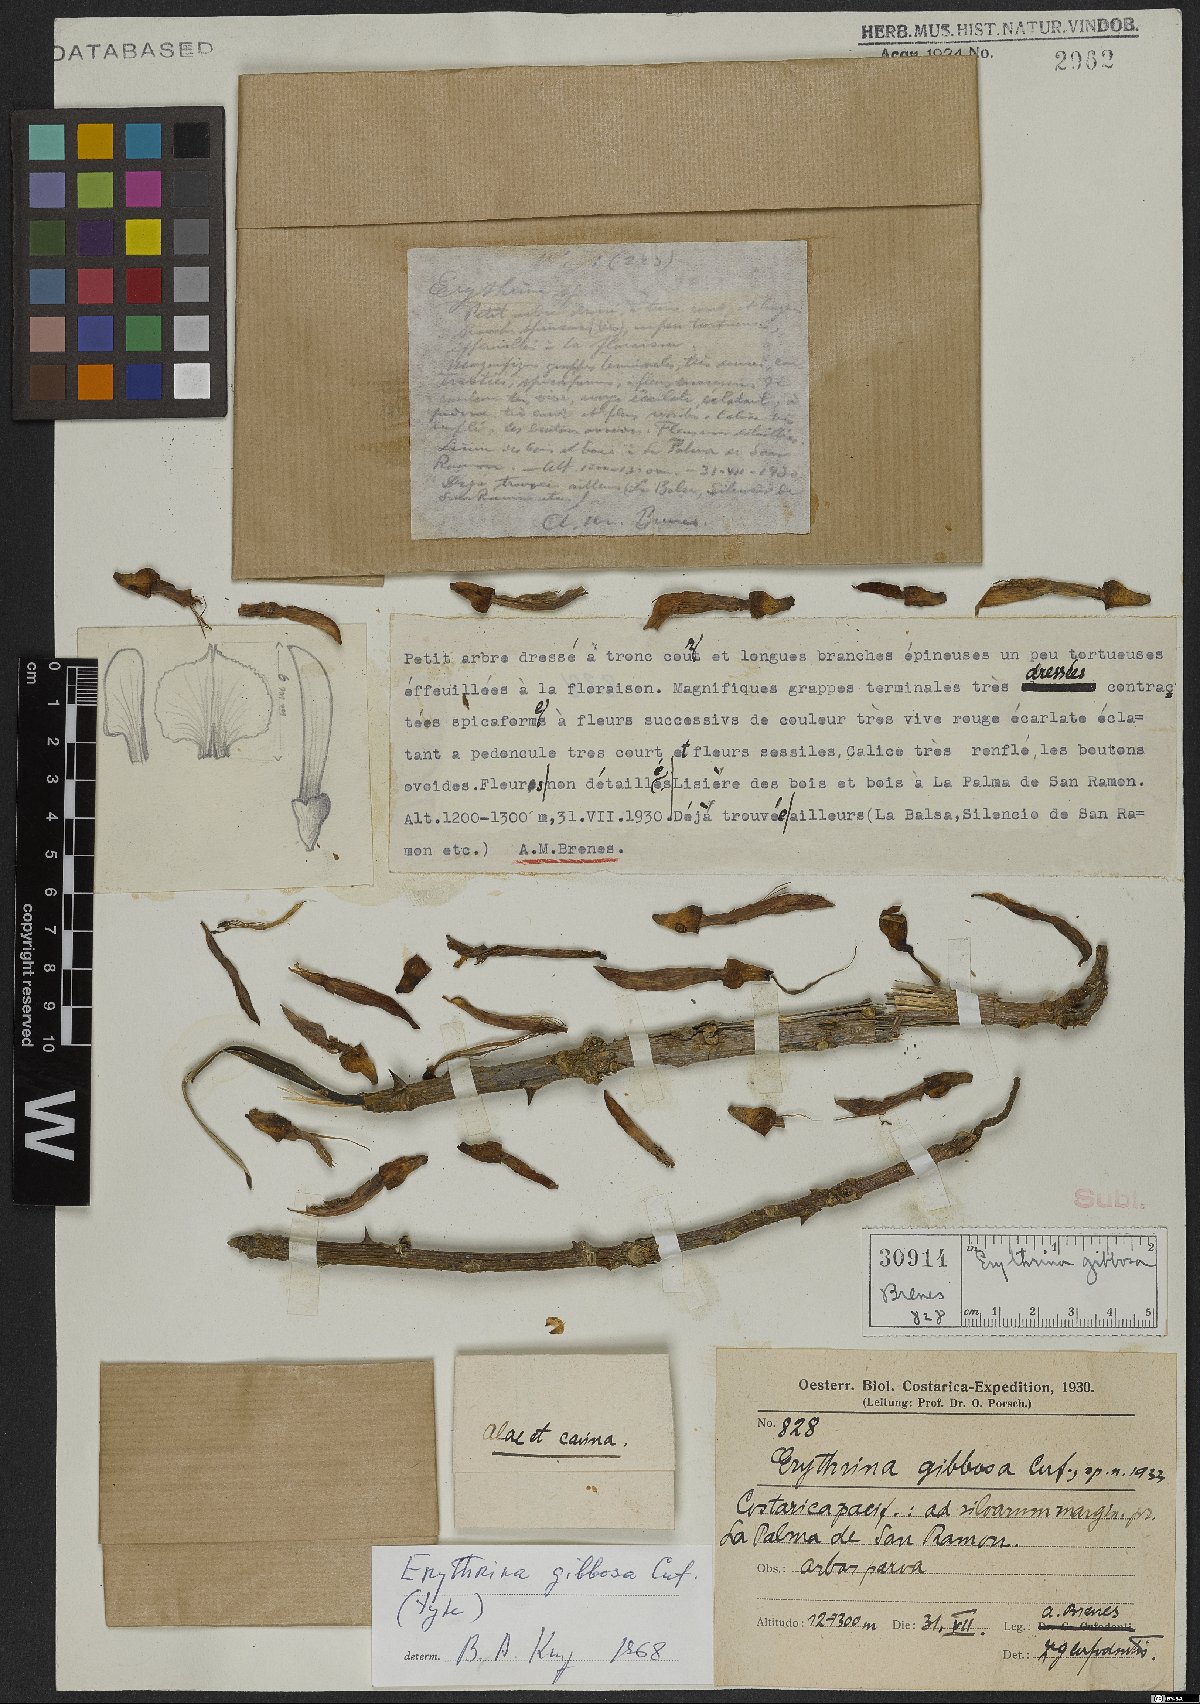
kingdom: Plantae
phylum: Tracheophyta
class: Magnoliopsida
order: Fabales
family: Fabaceae
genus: Erythrina
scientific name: Erythrina gibbosa
